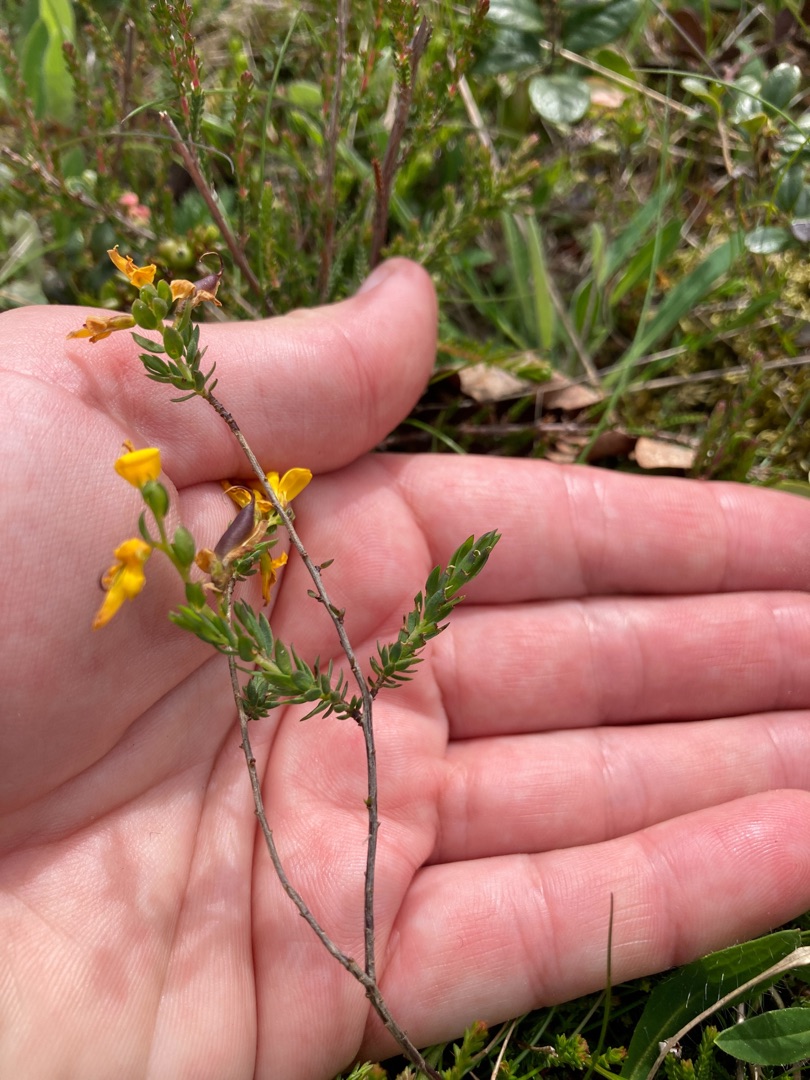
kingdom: Plantae
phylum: Tracheophyta
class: Magnoliopsida
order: Fabales
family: Fabaceae
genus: Genista
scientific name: Genista anglica
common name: Engelsk visse
